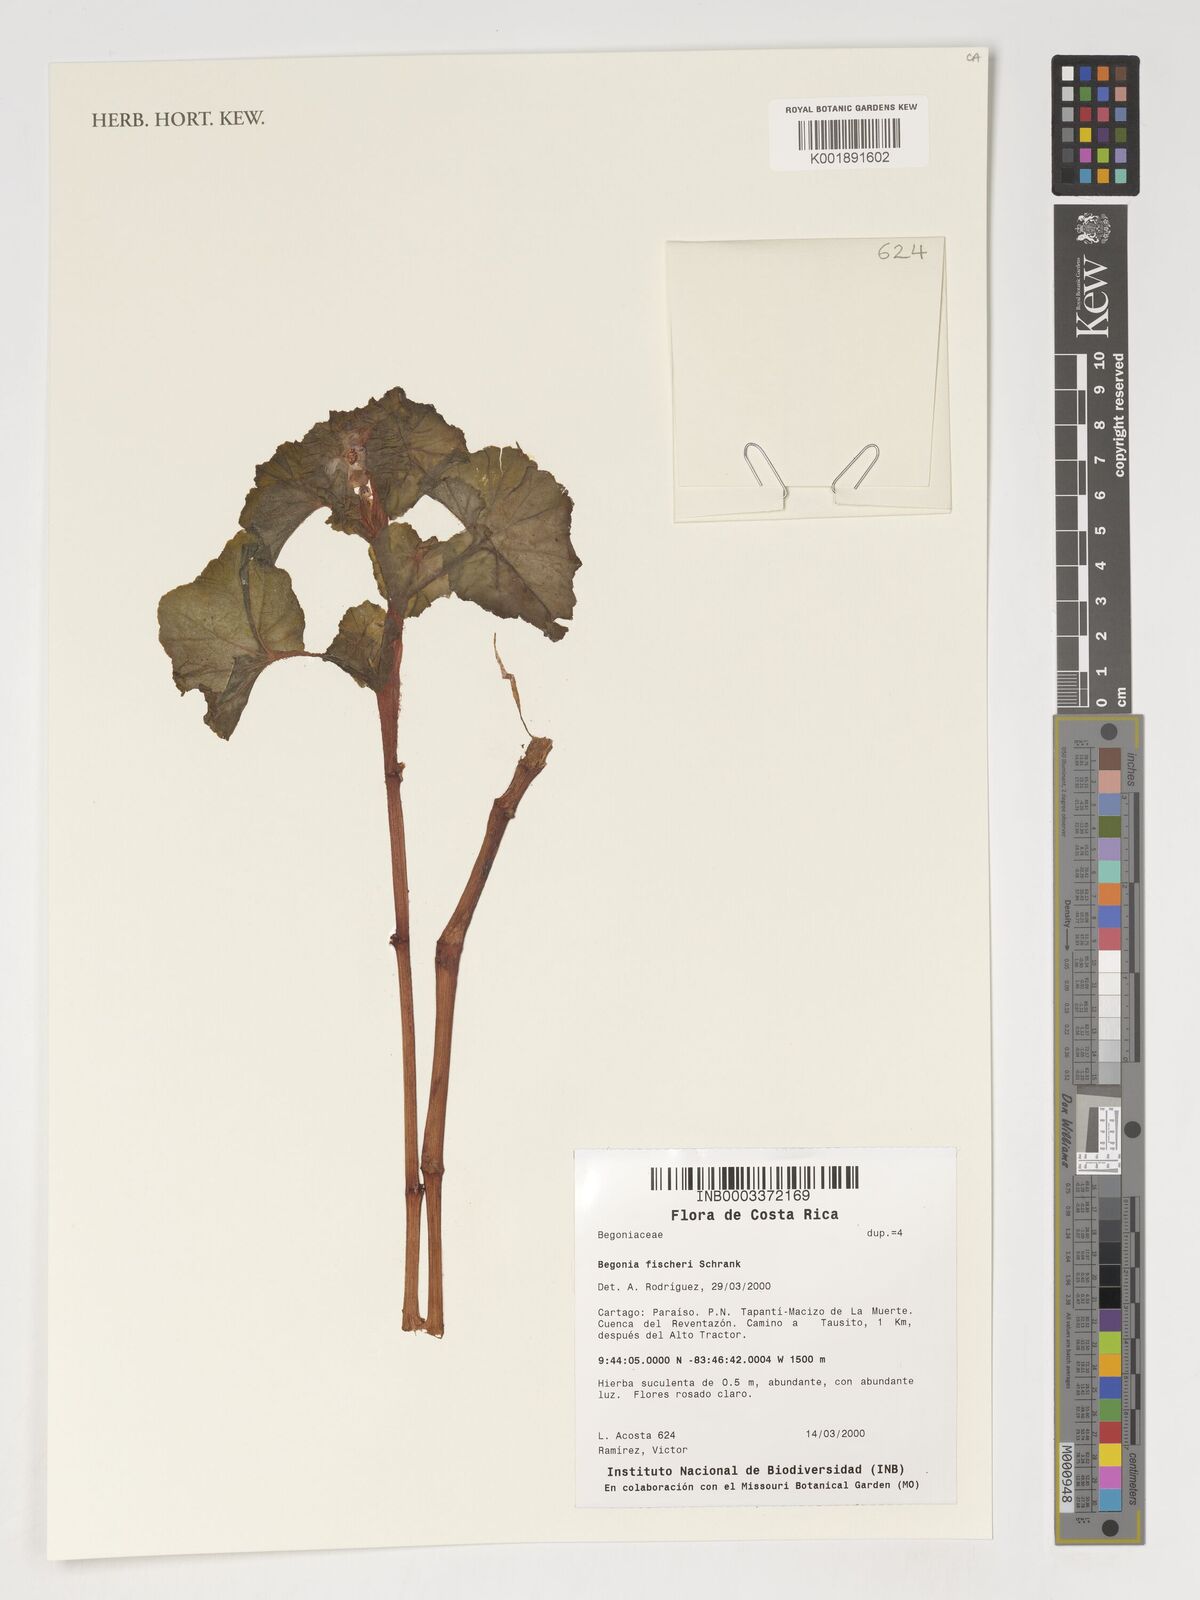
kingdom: Plantae
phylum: Tracheophyta
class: Magnoliopsida
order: Cucurbitales
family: Begoniaceae
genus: Begonia
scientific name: Begonia fischeri
